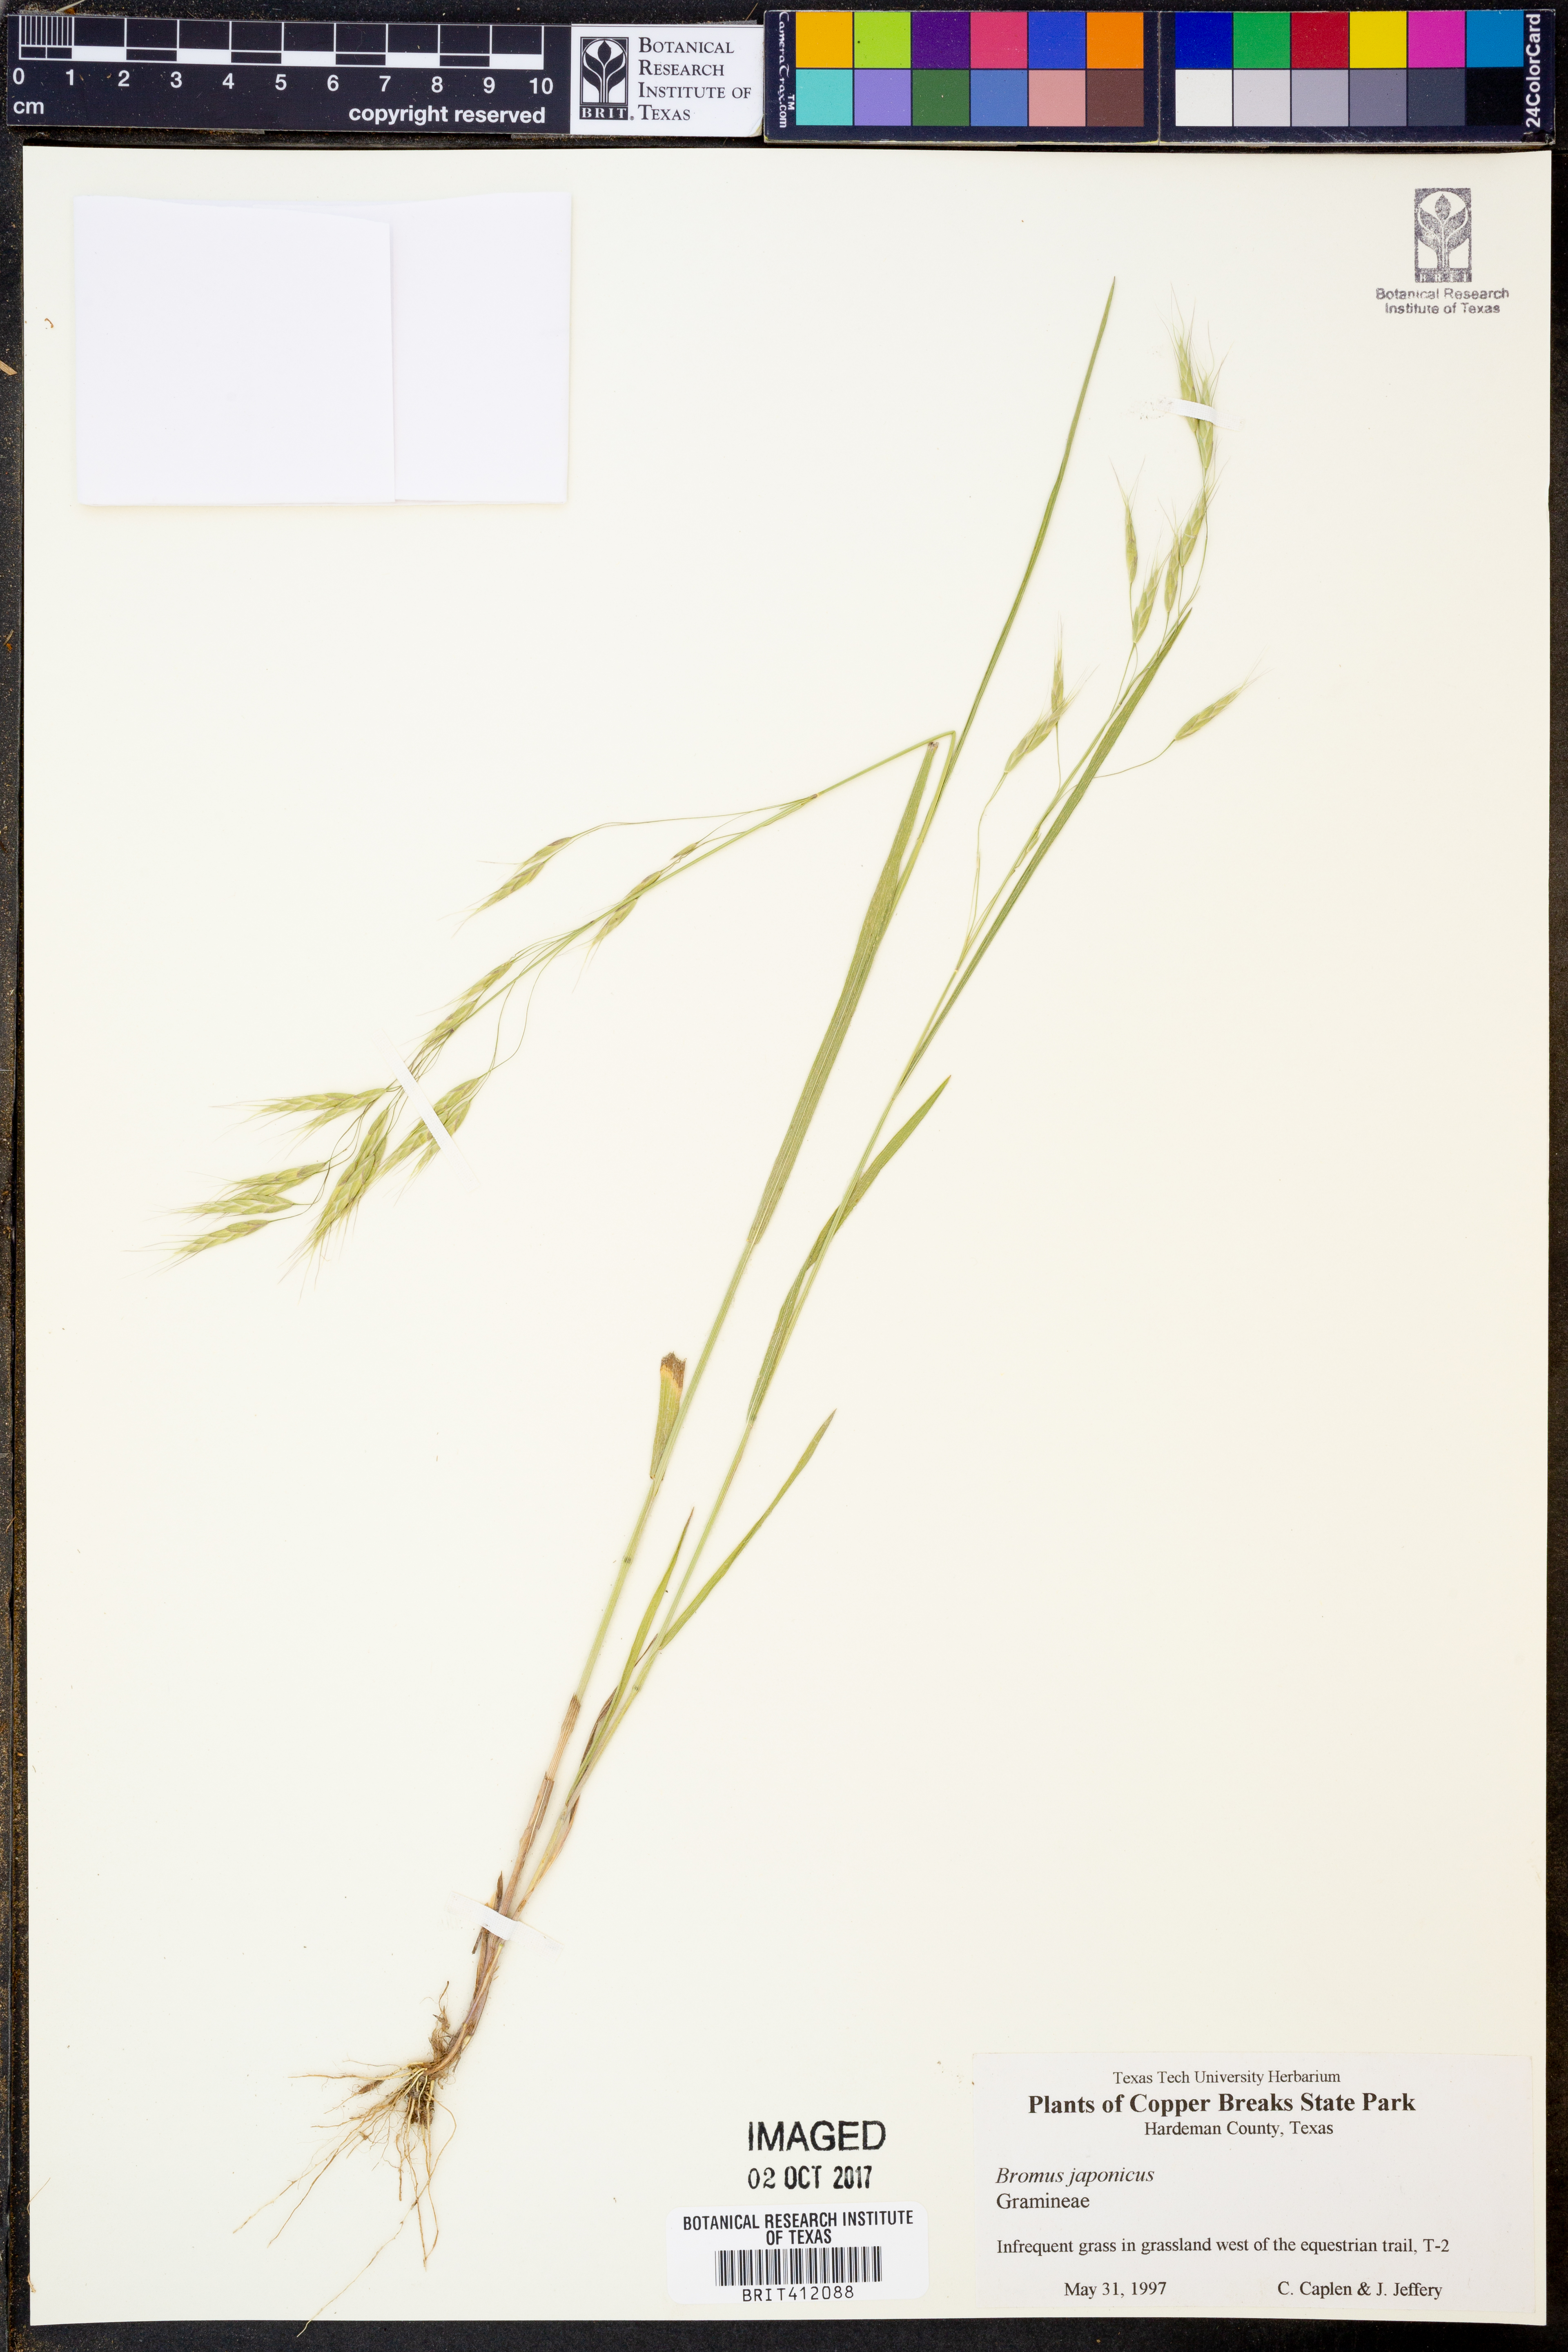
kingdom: Plantae
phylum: Tracheophyta
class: Liliopsida
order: Poales
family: Poaceae
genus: Bromus
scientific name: Bromus japonicus
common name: Japanese brome
